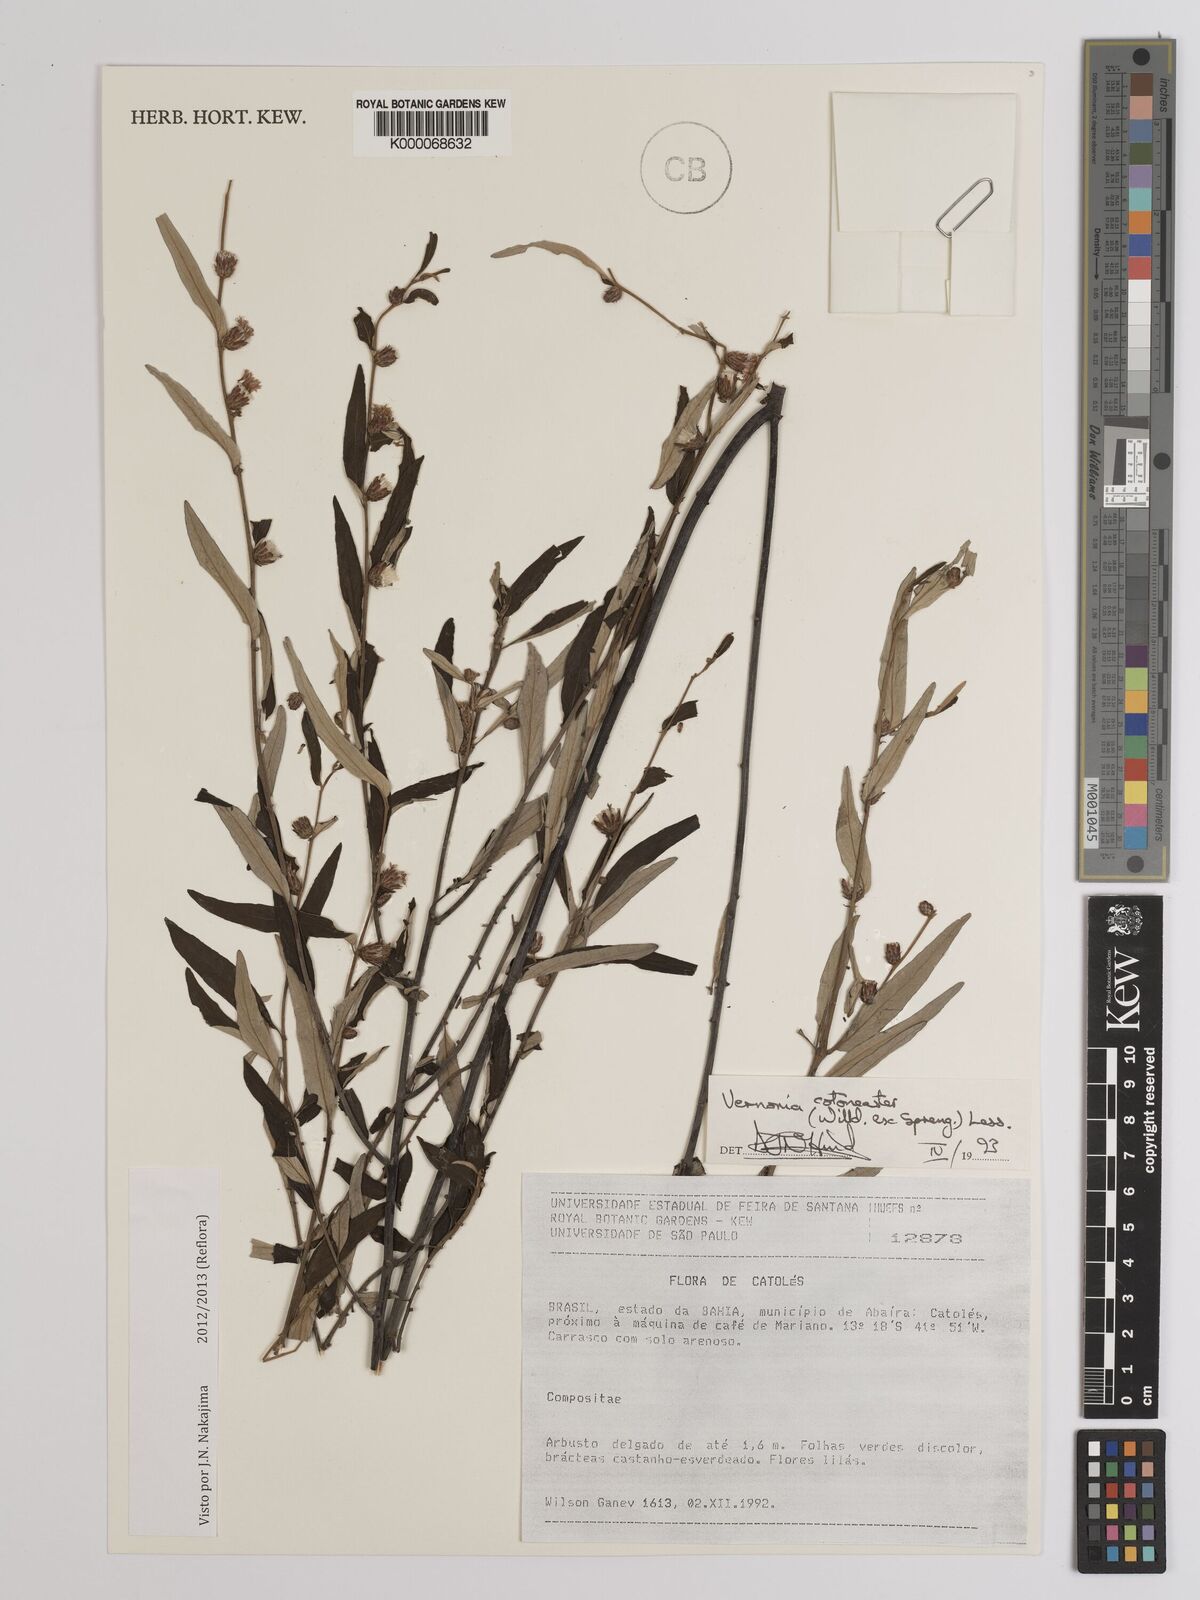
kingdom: Plantae
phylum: Tracheophyta
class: Magnoliopsida
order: Asterales
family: Asteraceae
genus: Lepidaploa
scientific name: Lepidaploa cotoneaster
